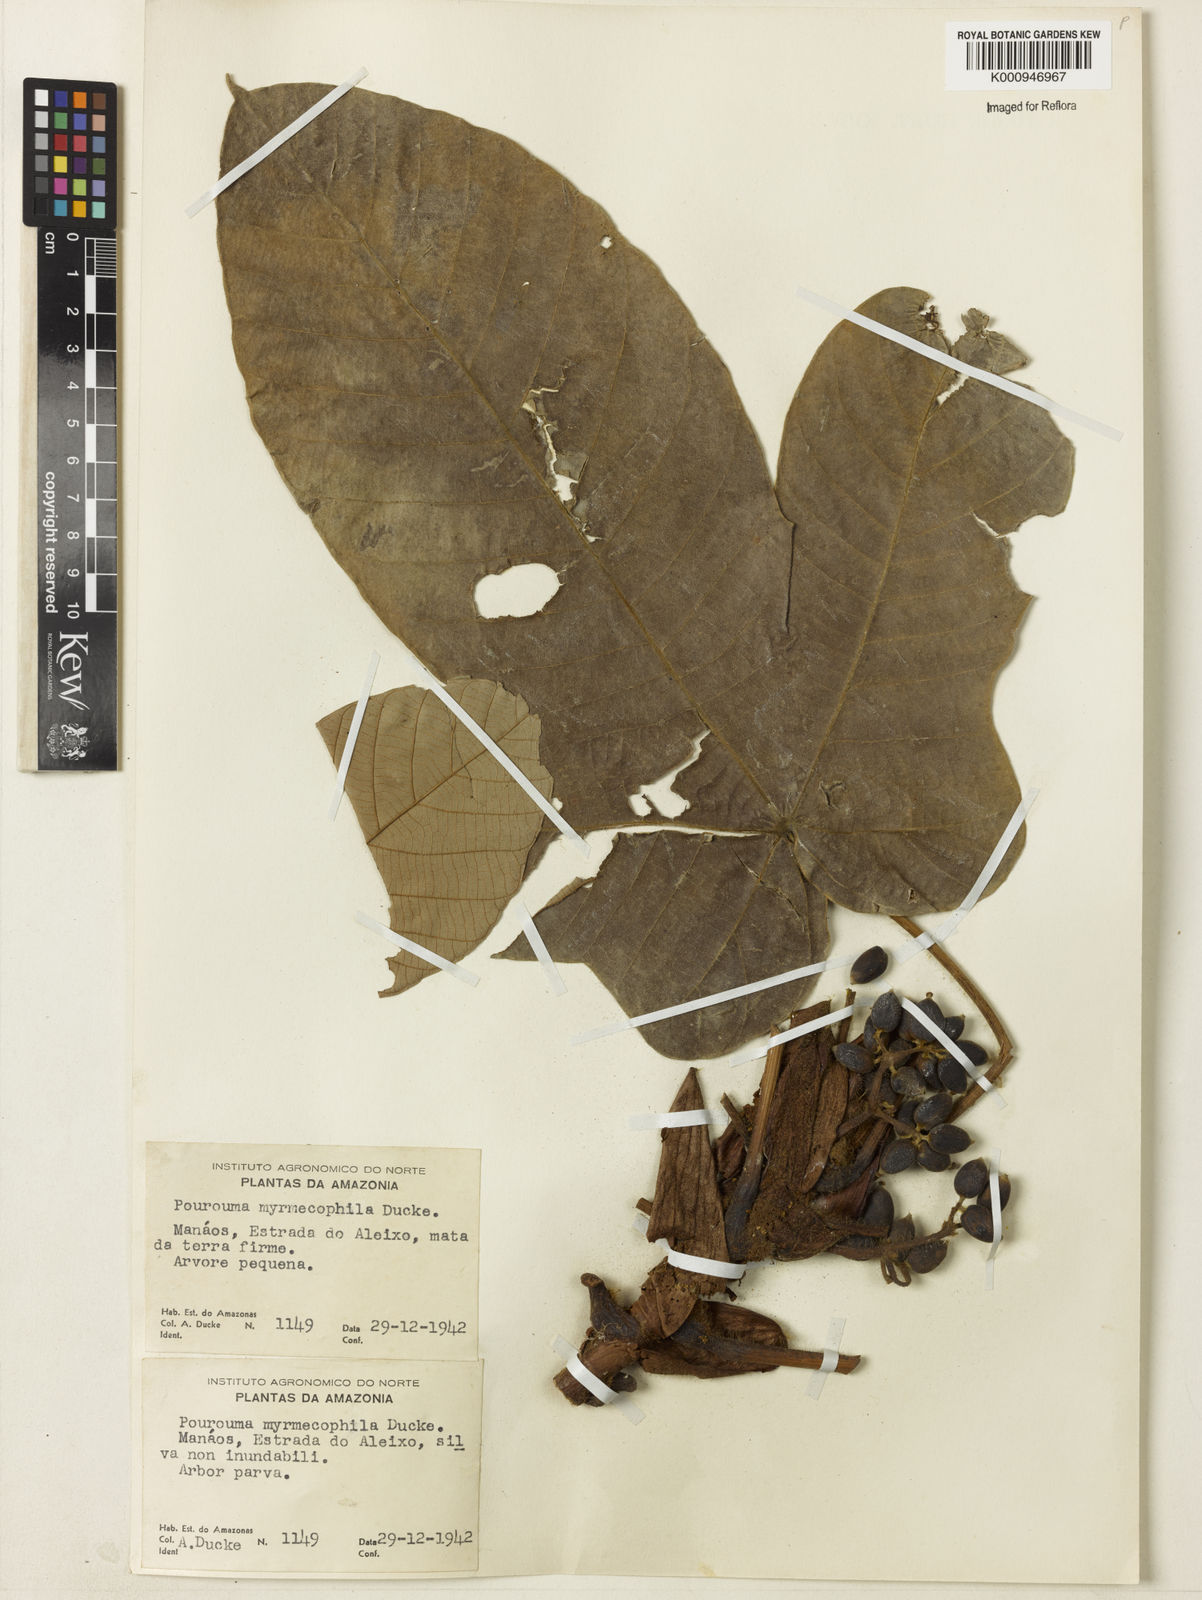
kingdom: Plantae
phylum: Tracheophyta
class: Magnoliopsida
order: Rosales
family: Urticaceae
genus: Pourouma
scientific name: Pourouma myrmecophila
